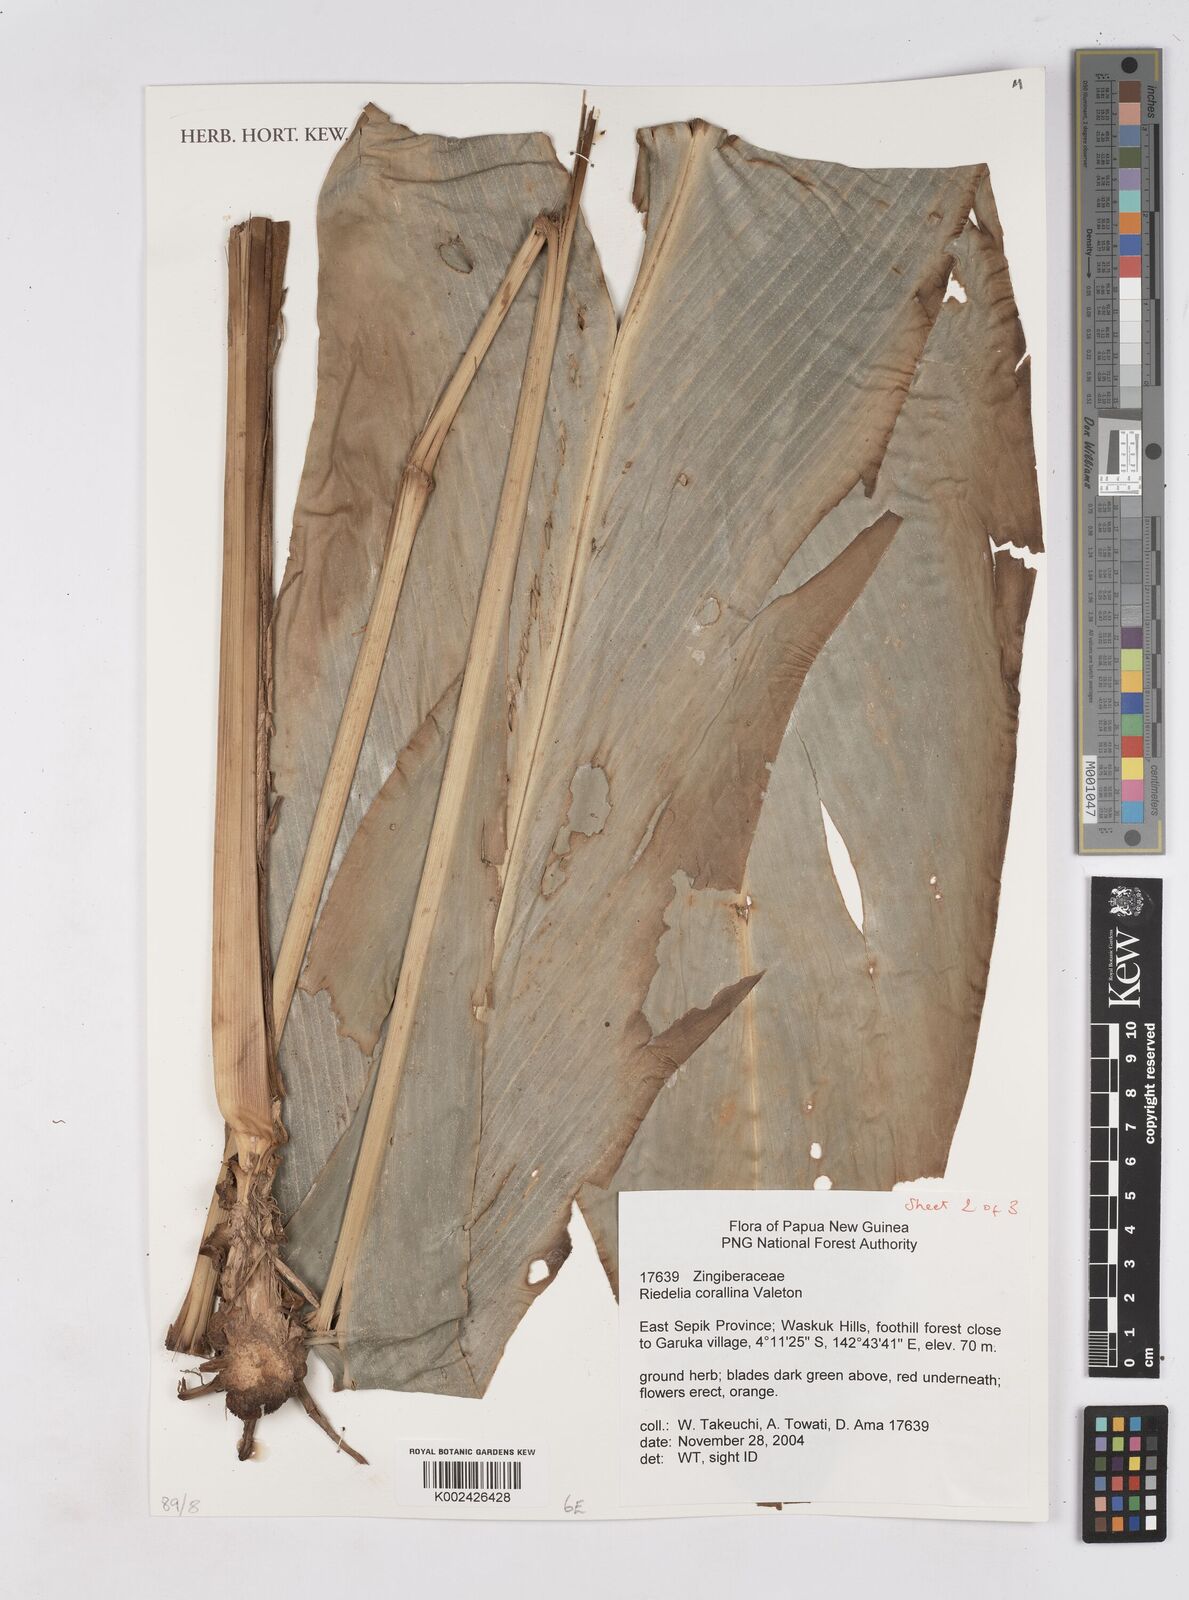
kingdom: Plantae
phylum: Tracheophyta
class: Liliopsida
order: Zingiberales
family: Zingiberaceae
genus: Riedelia
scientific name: Riedelia corallina
